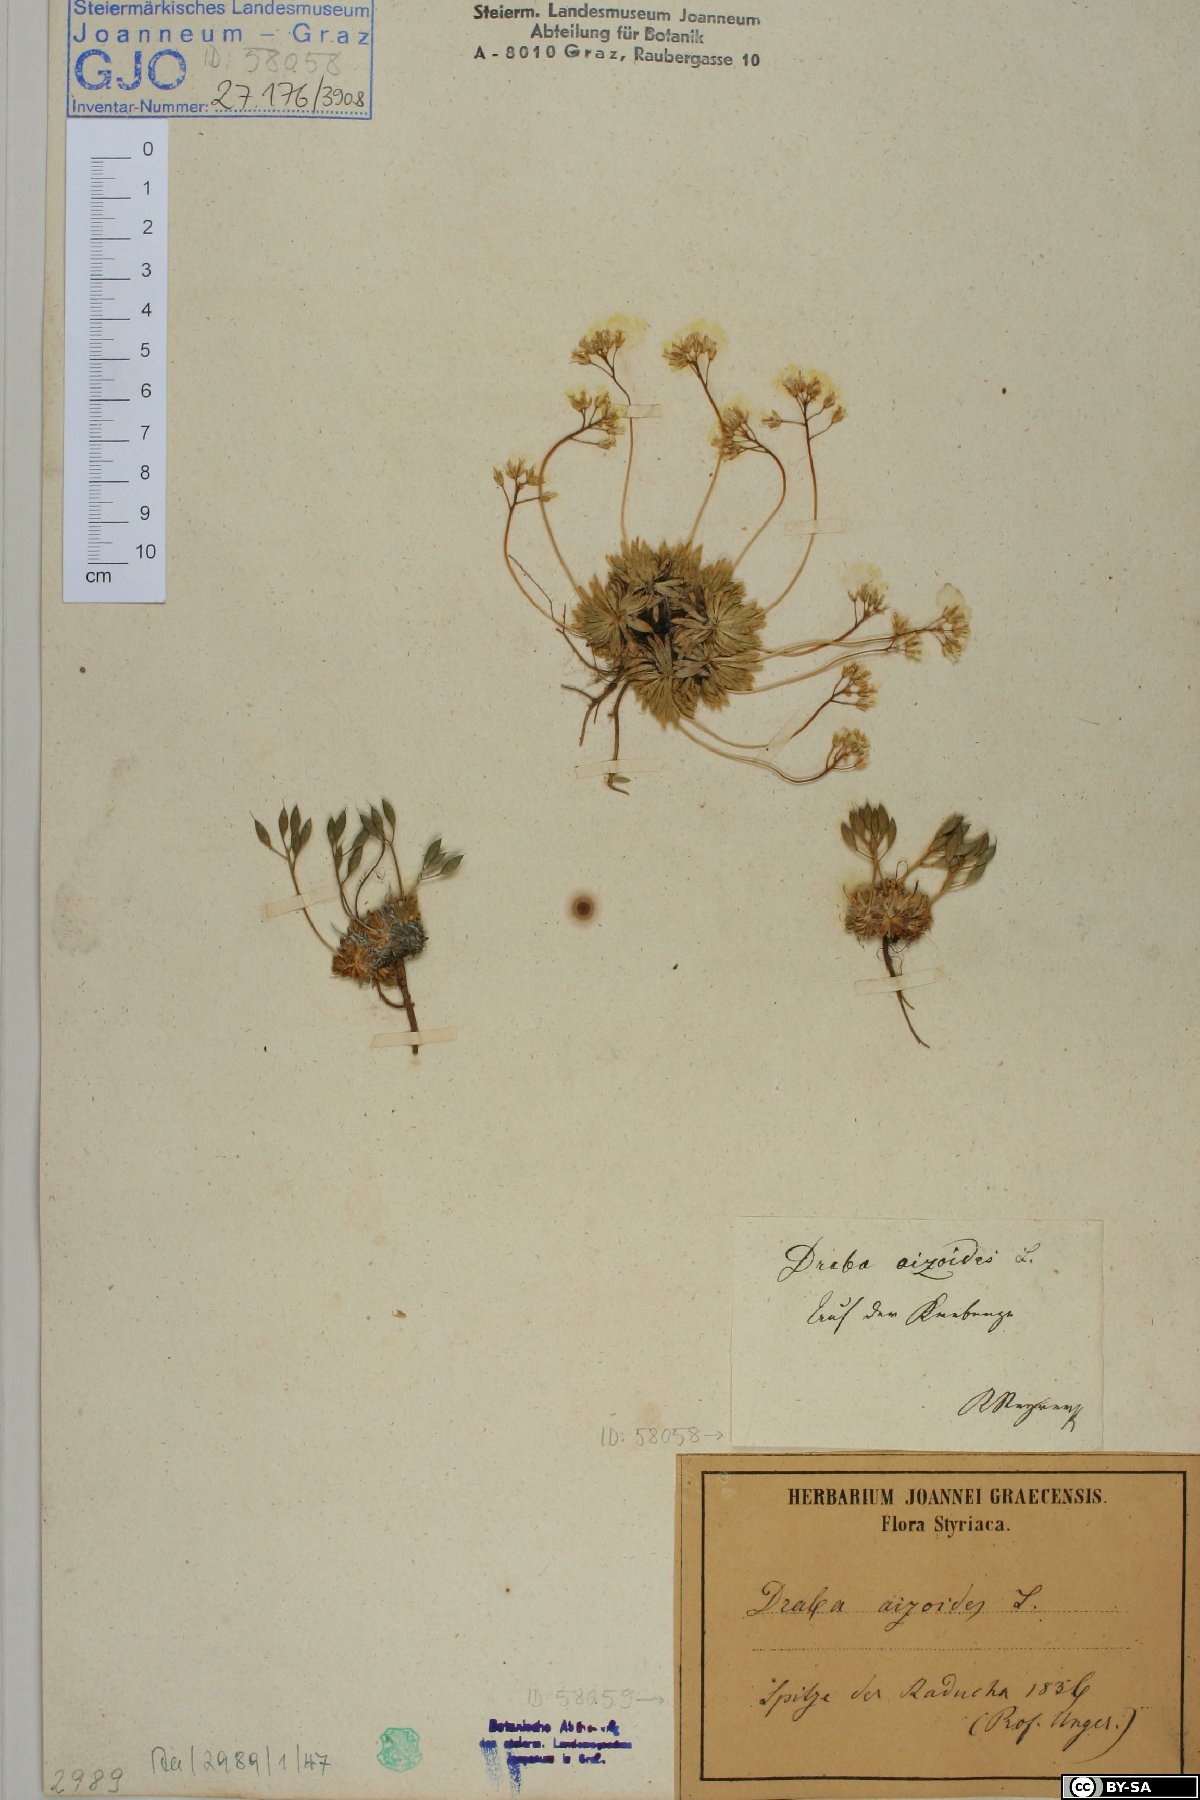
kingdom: Plantae
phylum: Tracheophyta
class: Magnoliopsida
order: Brassicales
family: Brassicaceae
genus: Draba
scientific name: Draba aizoides
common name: Yellow whitlowgrass
